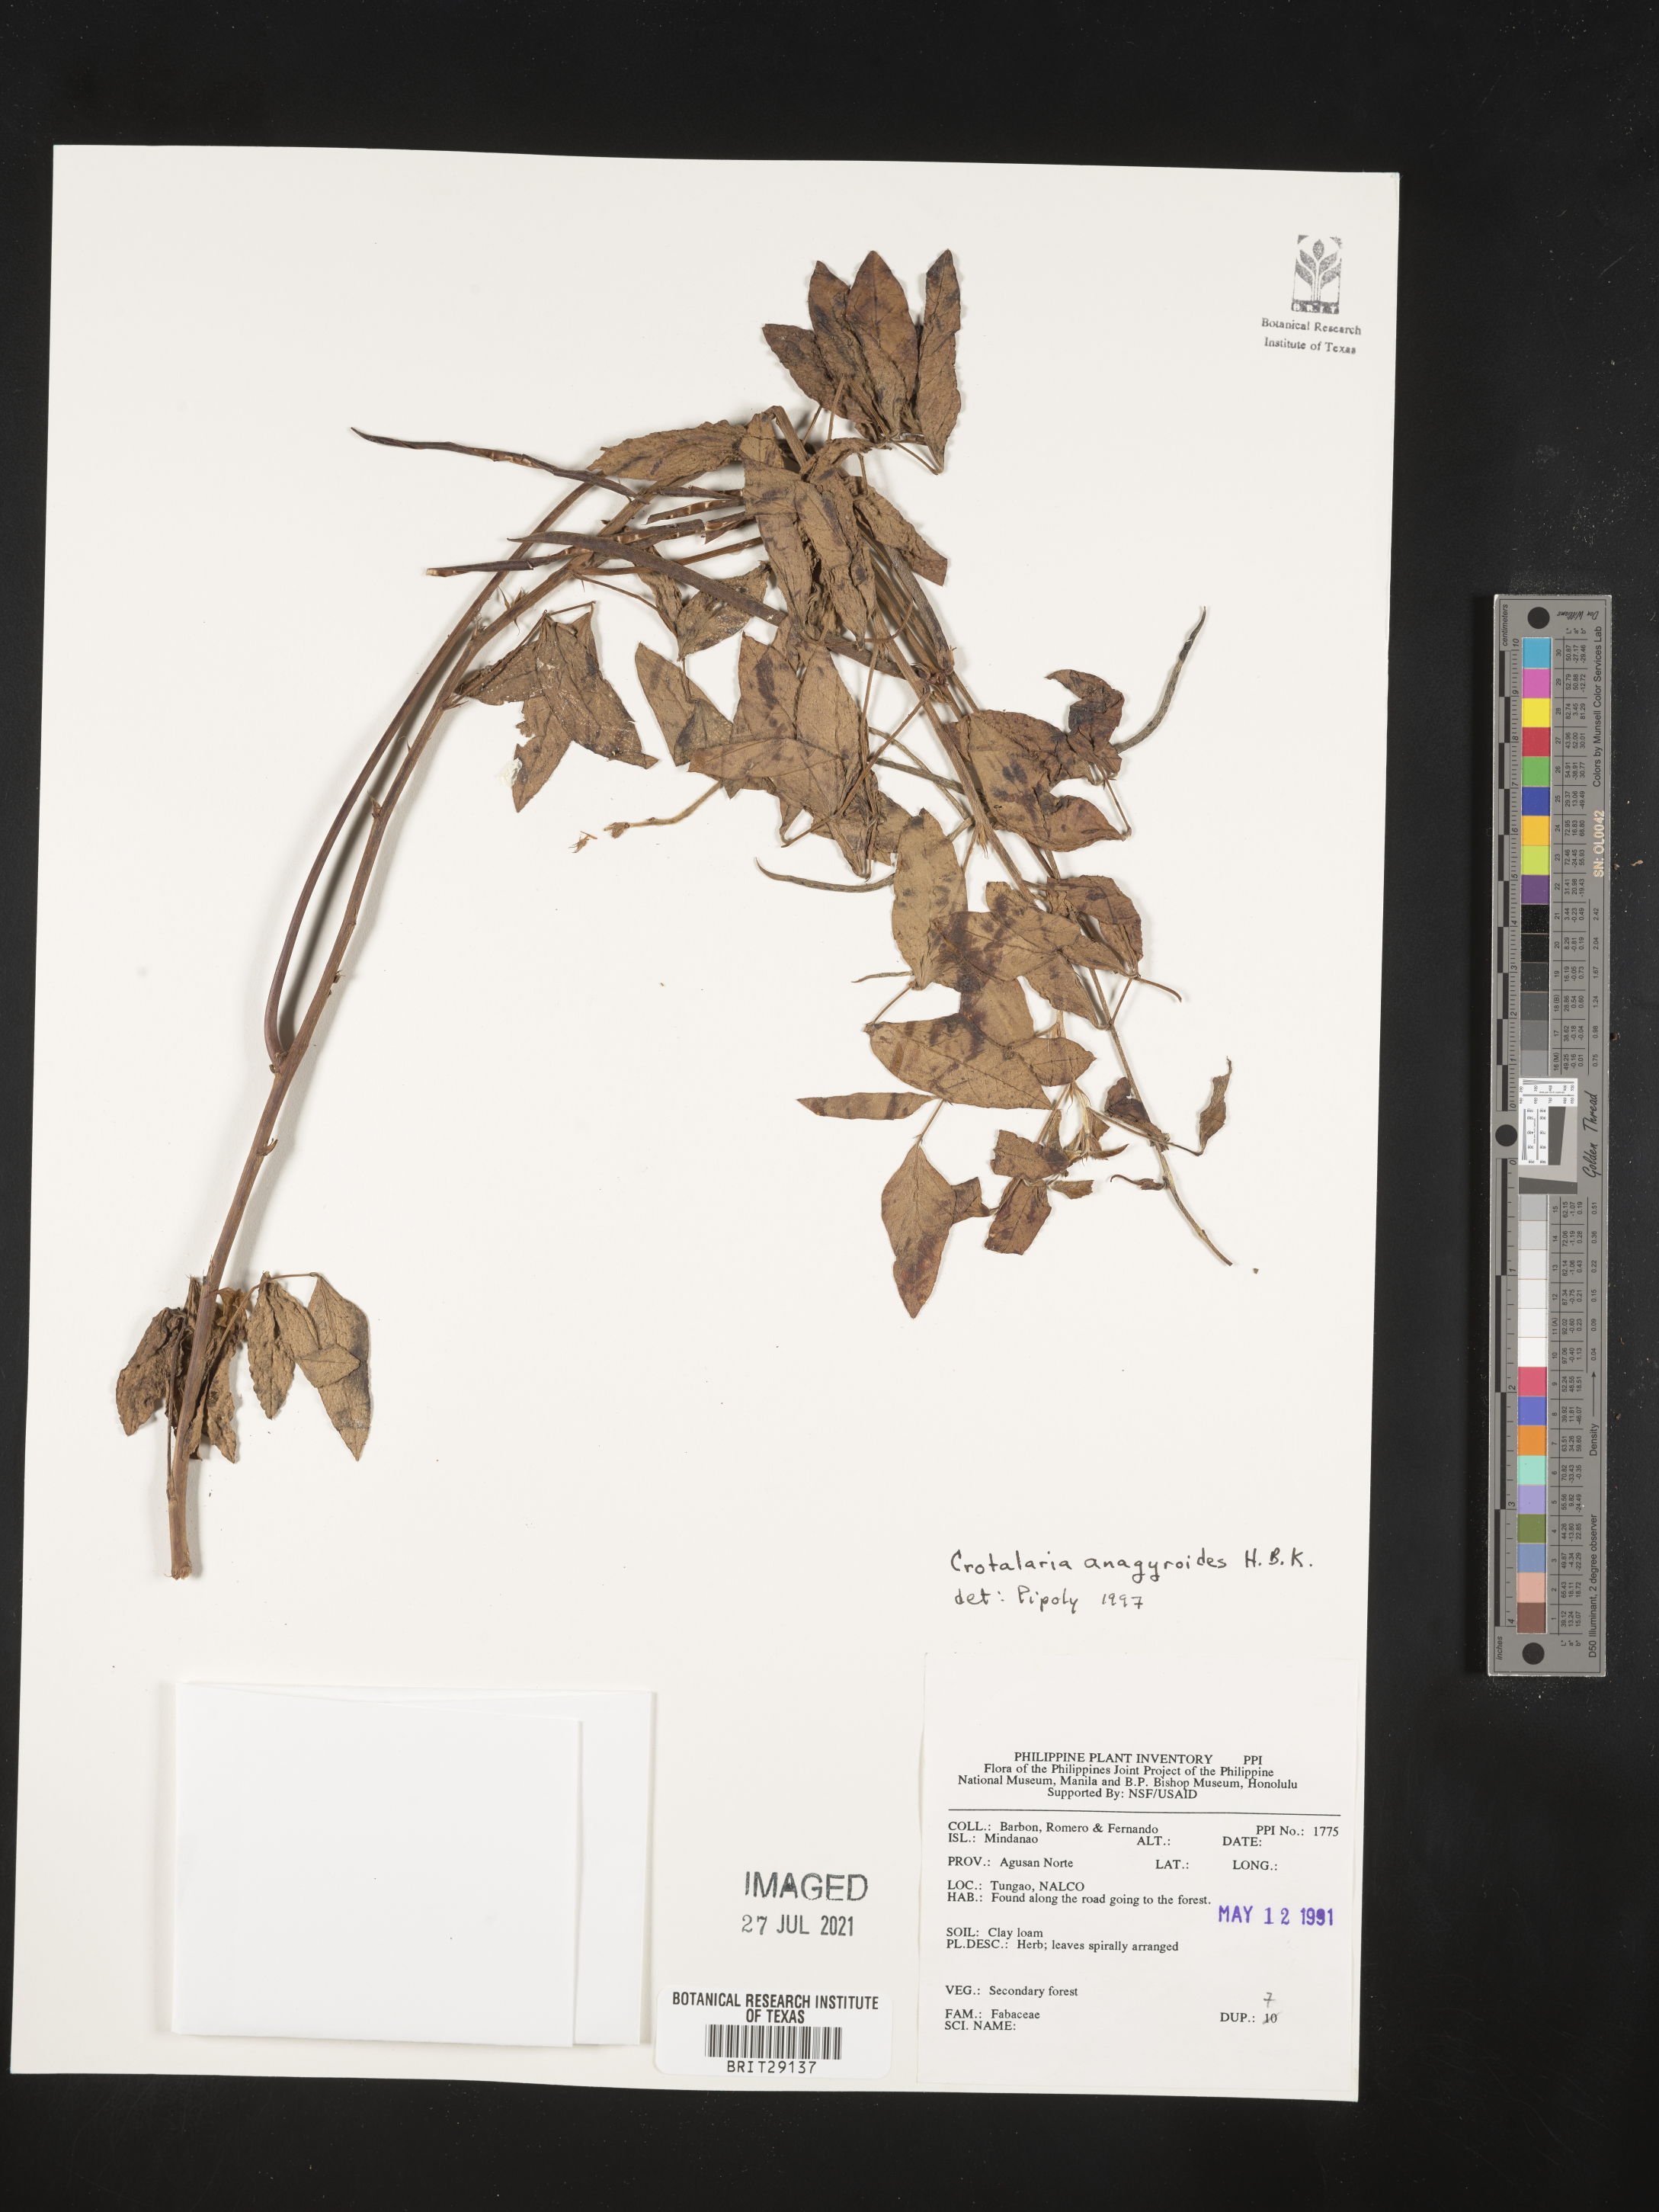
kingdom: Plantae
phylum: Tracheophyta
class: Magnoliopsida
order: Fabales
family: Fabaceae
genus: Crotalaria
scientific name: Crotalaria micans
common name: Caracas rattlebox
